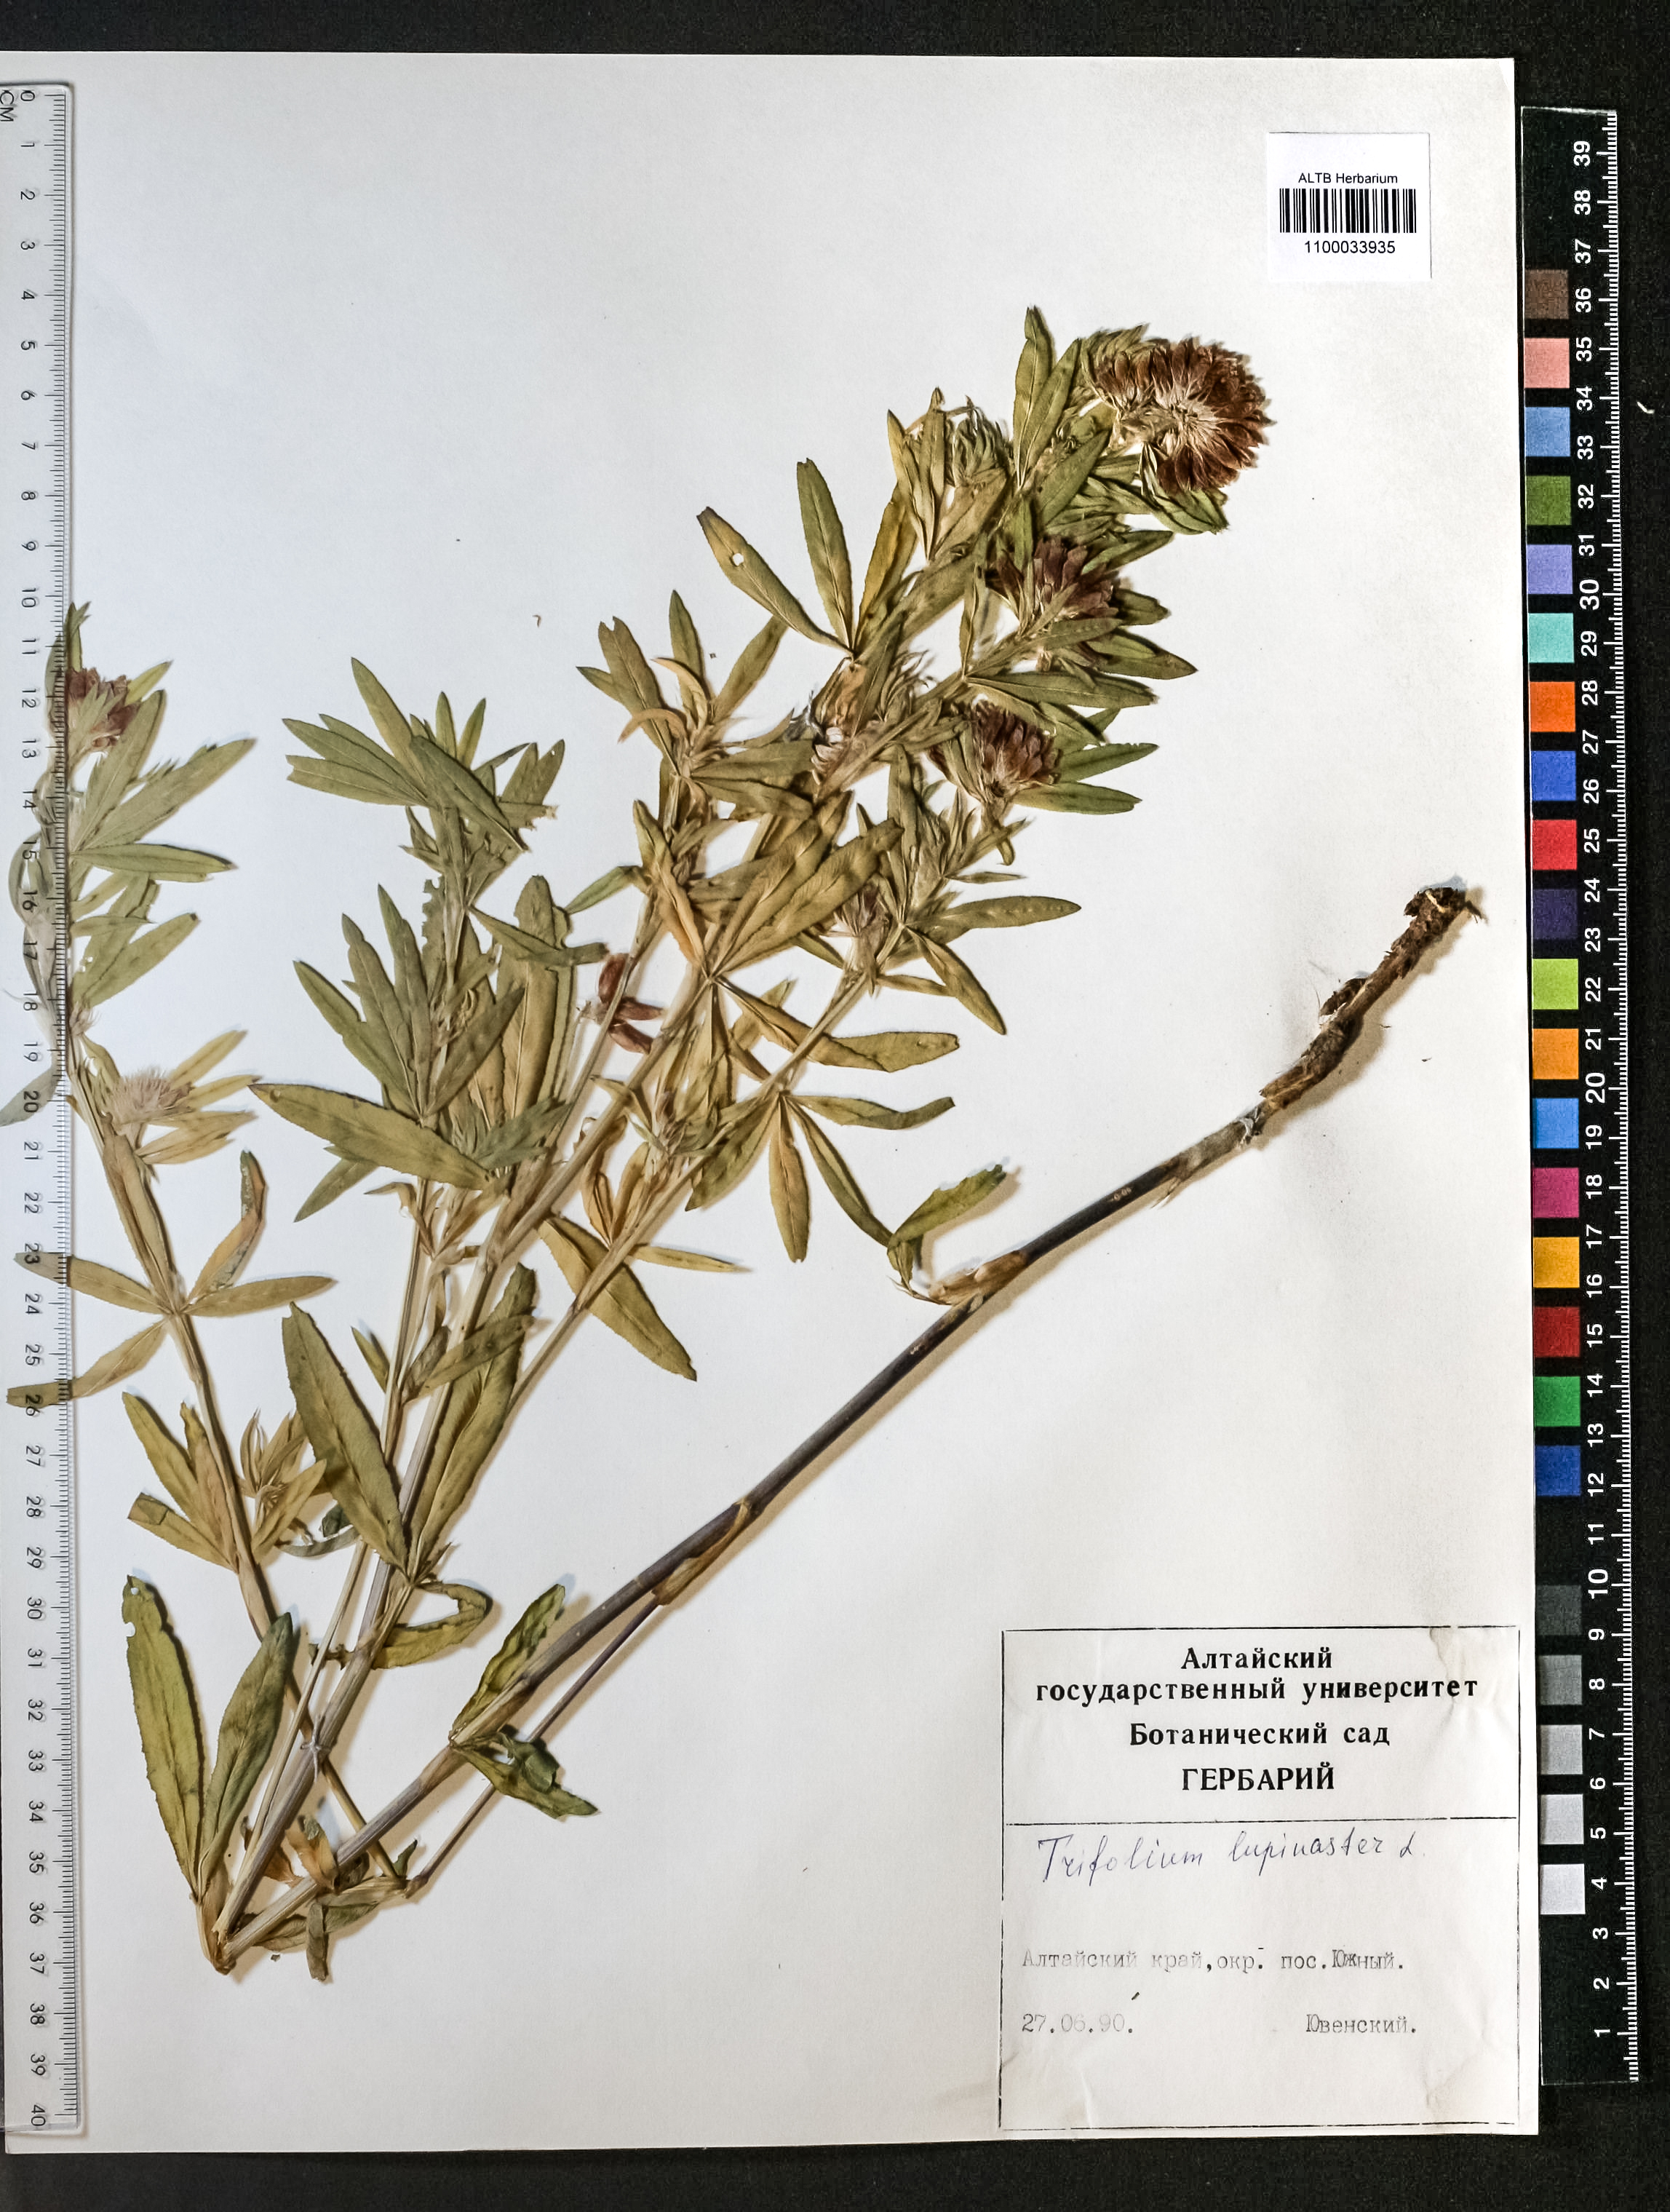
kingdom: Plantae
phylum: Tracheophyta
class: Magnoliopsida
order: Fabales
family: Fabaceae
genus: Trifolium
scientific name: Trifolium lupinaster
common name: Lupine clover
